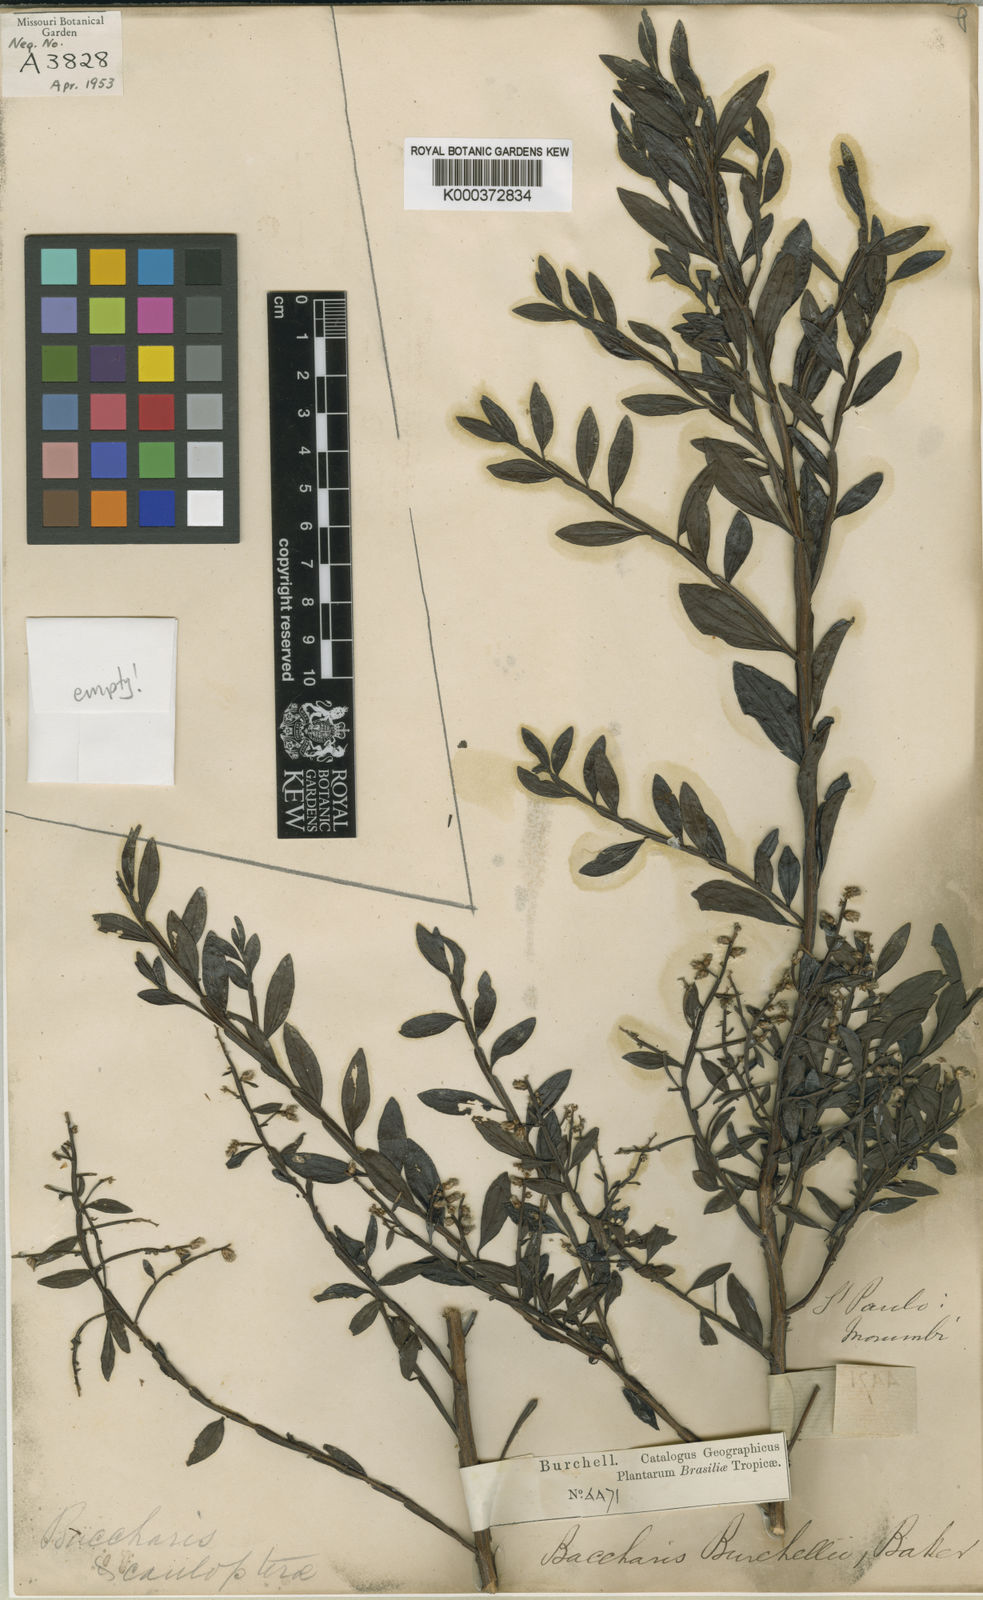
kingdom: Plantae
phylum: Tracheophyta
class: Magnoliopsida
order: Asterales
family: Asteraceae
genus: Baccharis
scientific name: Baccharis burchellii
